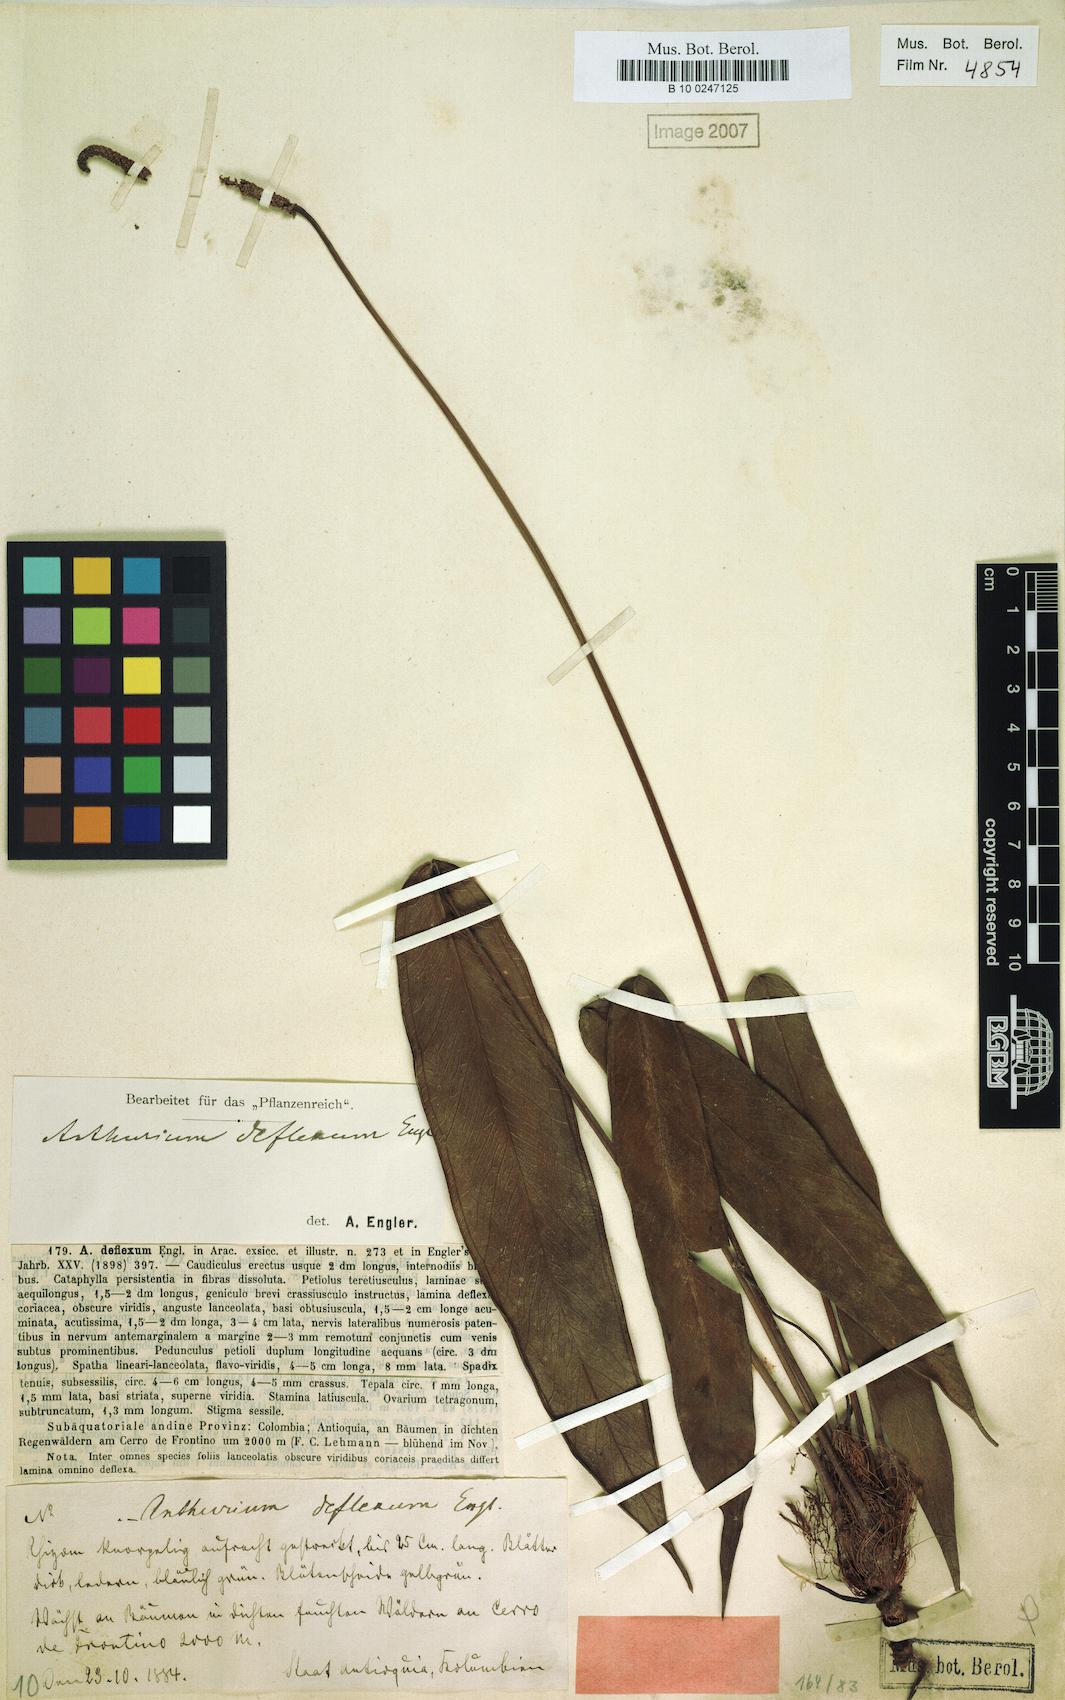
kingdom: Plantae
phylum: Tracheophyta
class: Liliopsida
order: Alismatales
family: Araceae
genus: Anthurium
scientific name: Anthurium deflexum
